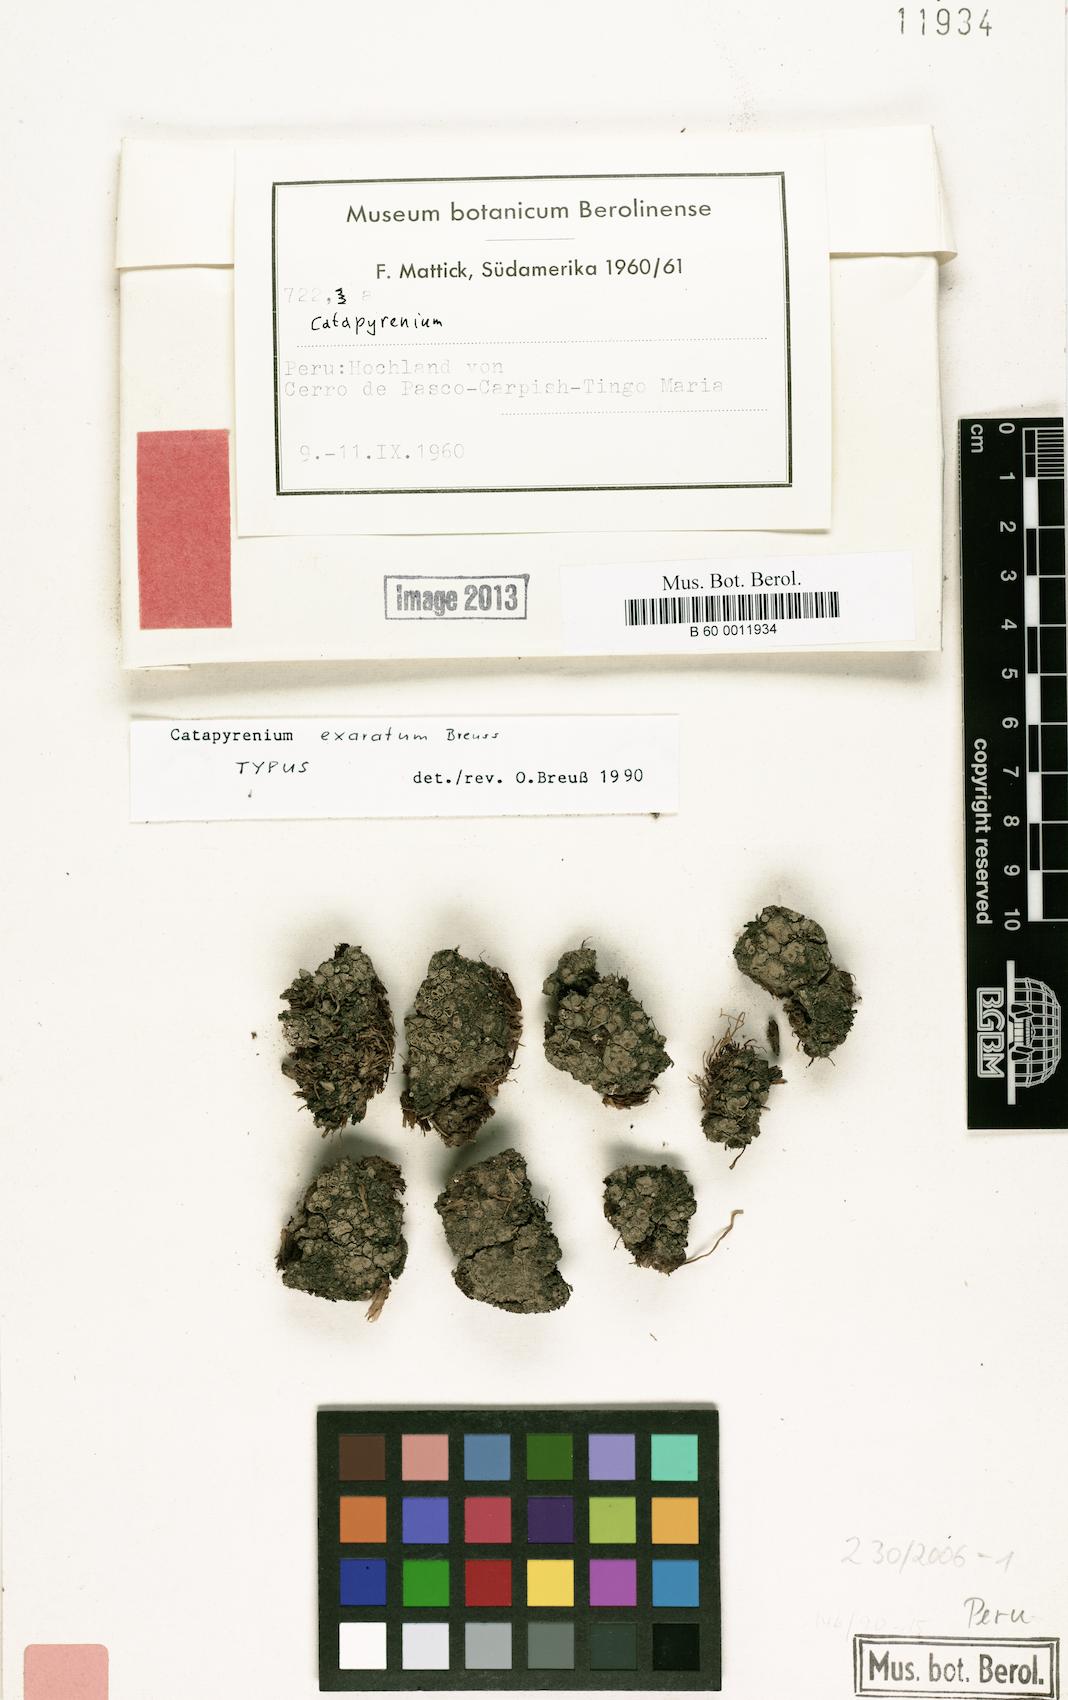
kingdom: Fungi
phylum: Ascomycota
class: Eurotiomycetes
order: Verrucariales
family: Verrucariaceae
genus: Catapyrenium
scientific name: Catapyrenium exaratum
